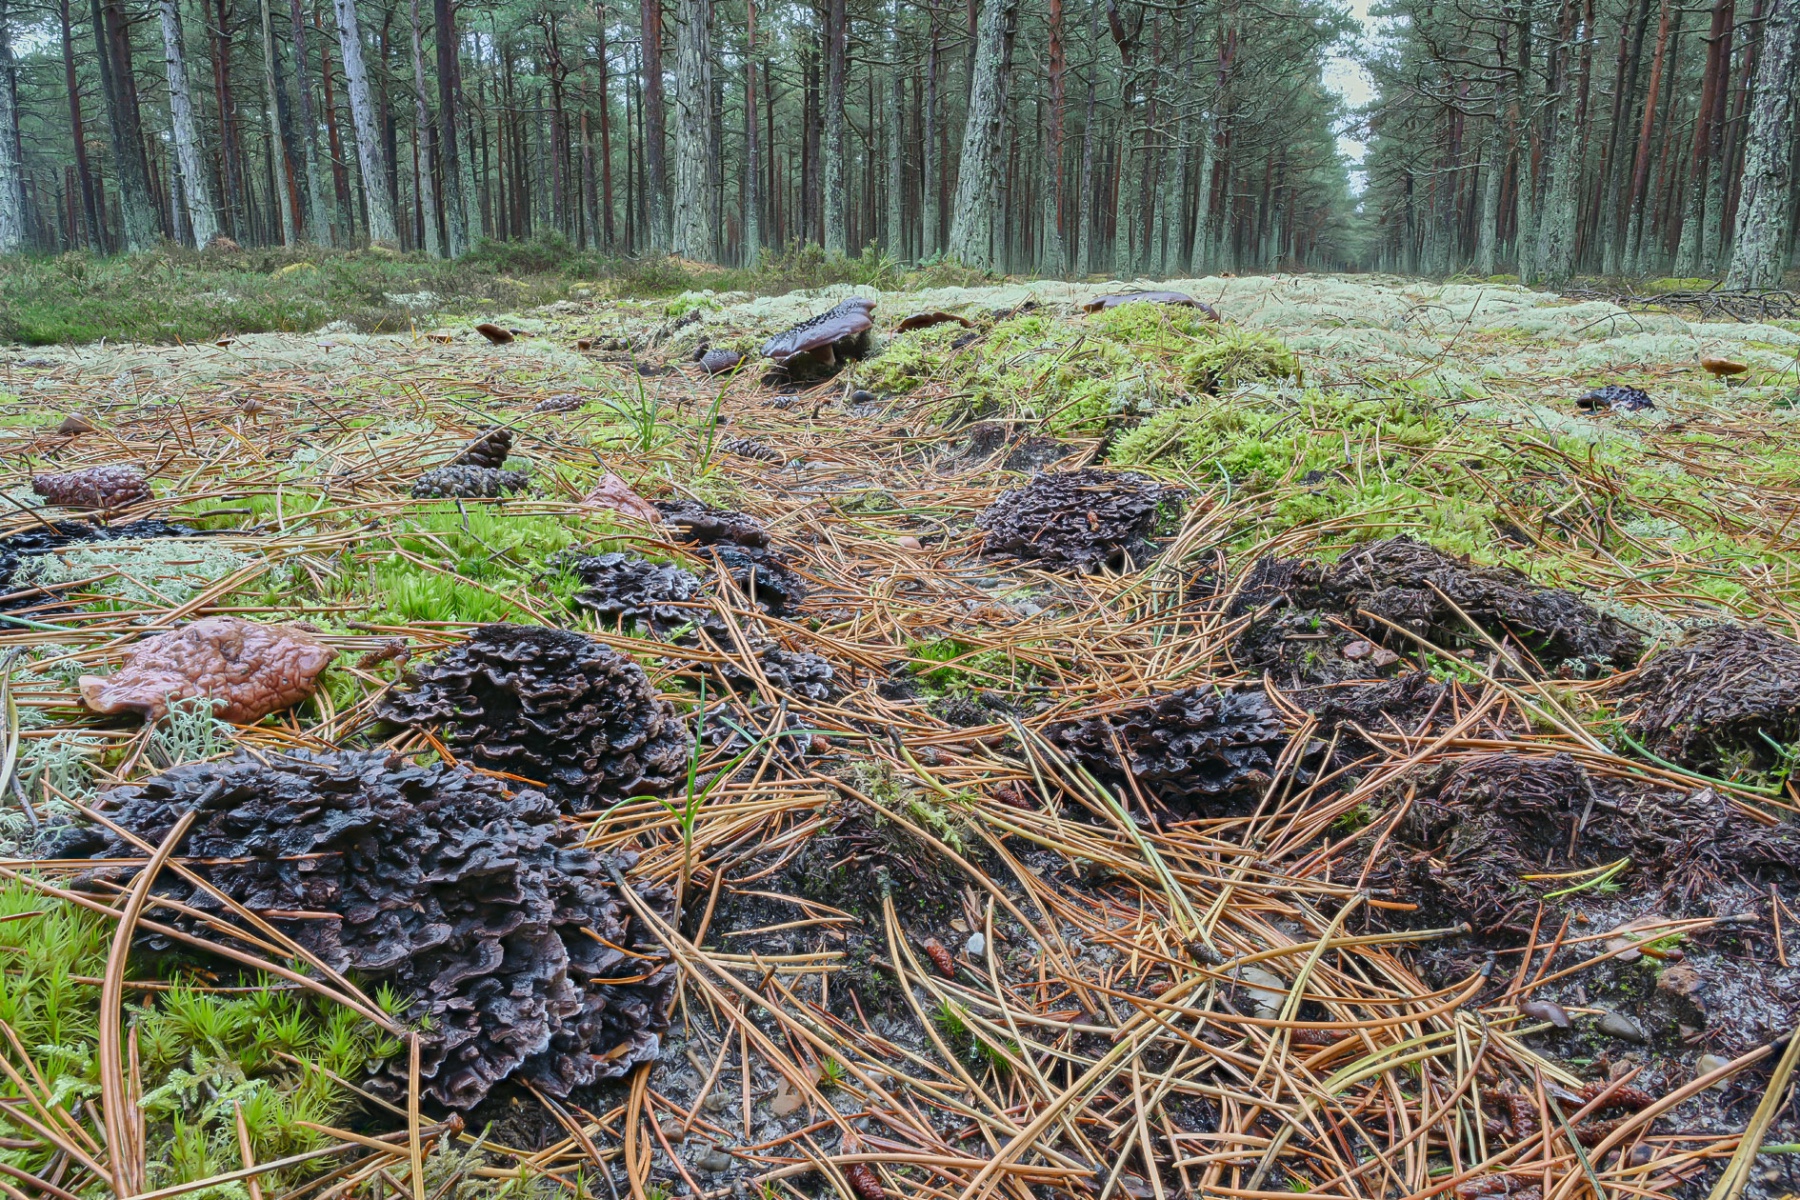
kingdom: Fungi
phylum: Basidiomycota
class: Agaricomycetes
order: Thelephorales
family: Thelephoraceae
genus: Phellodon
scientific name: Phellodon tomentosus
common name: vellugtende duftpigsvamp
